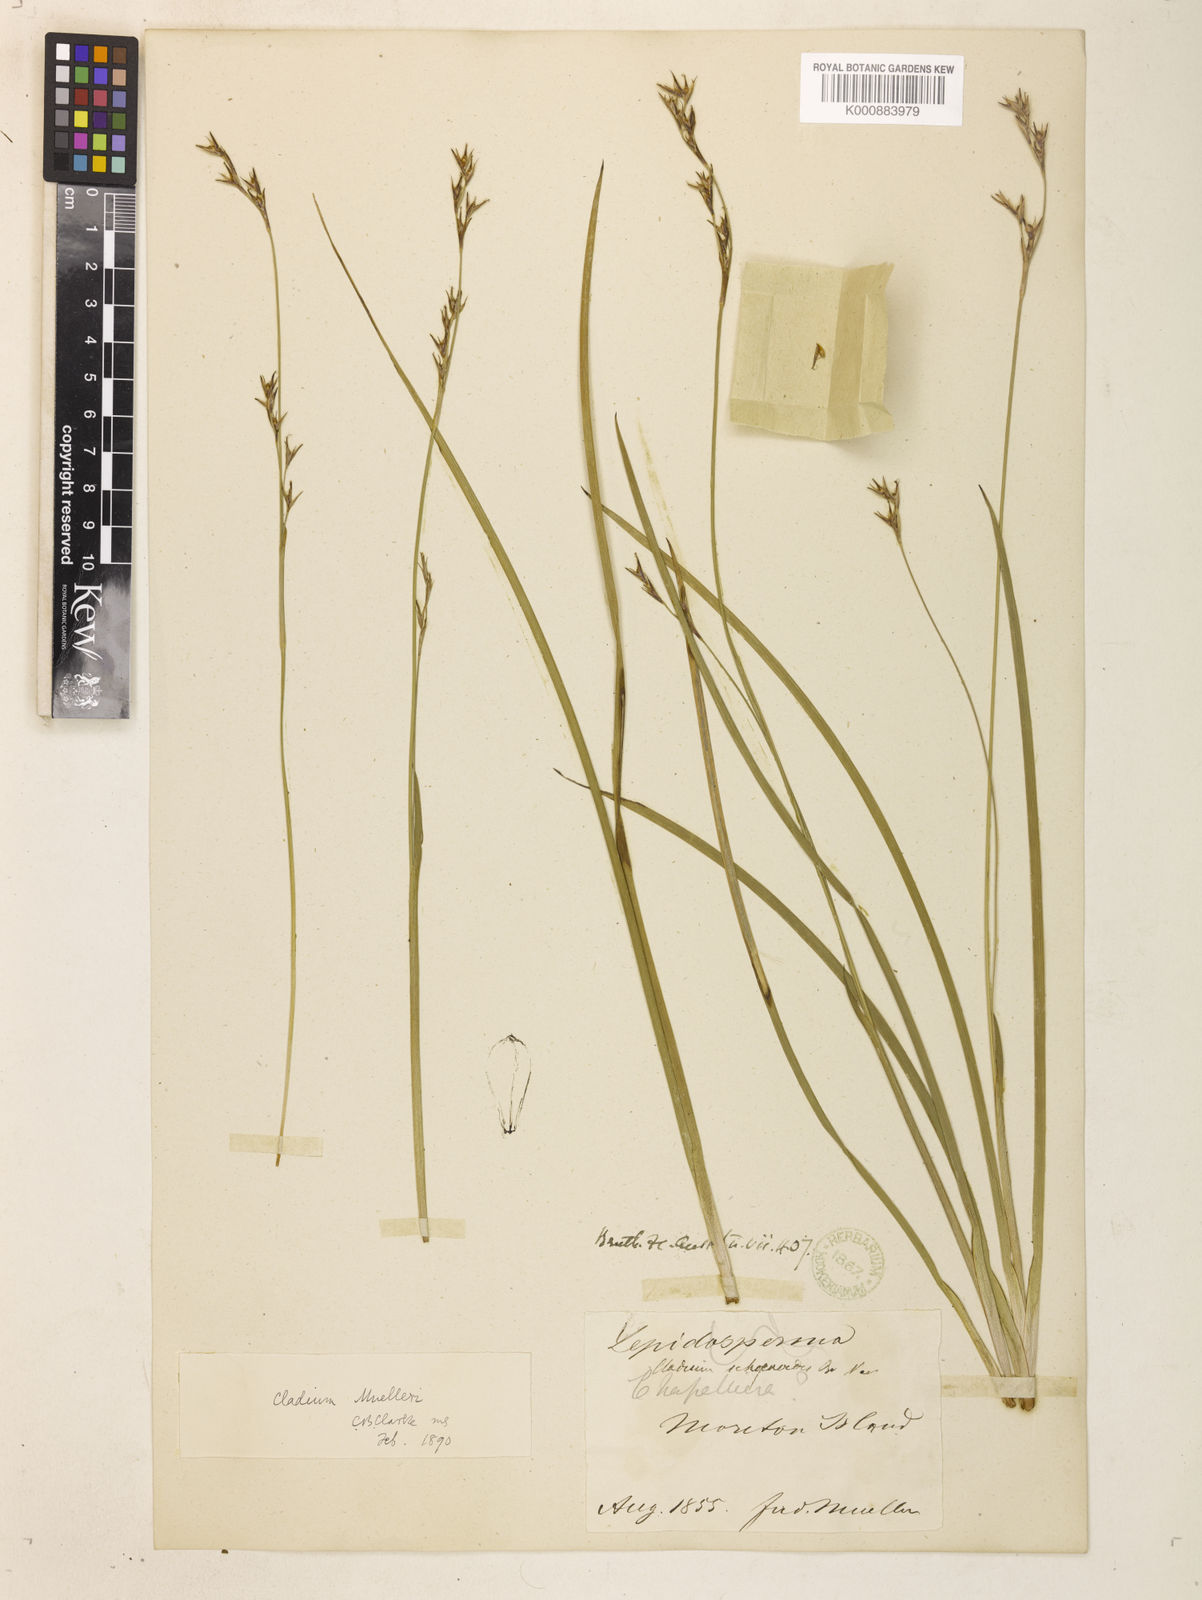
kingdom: Plantae
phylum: Tracheophyta
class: Liliopsida
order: Poales
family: Cyperaceae
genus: Machaerina
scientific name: Machaerina muelleri
